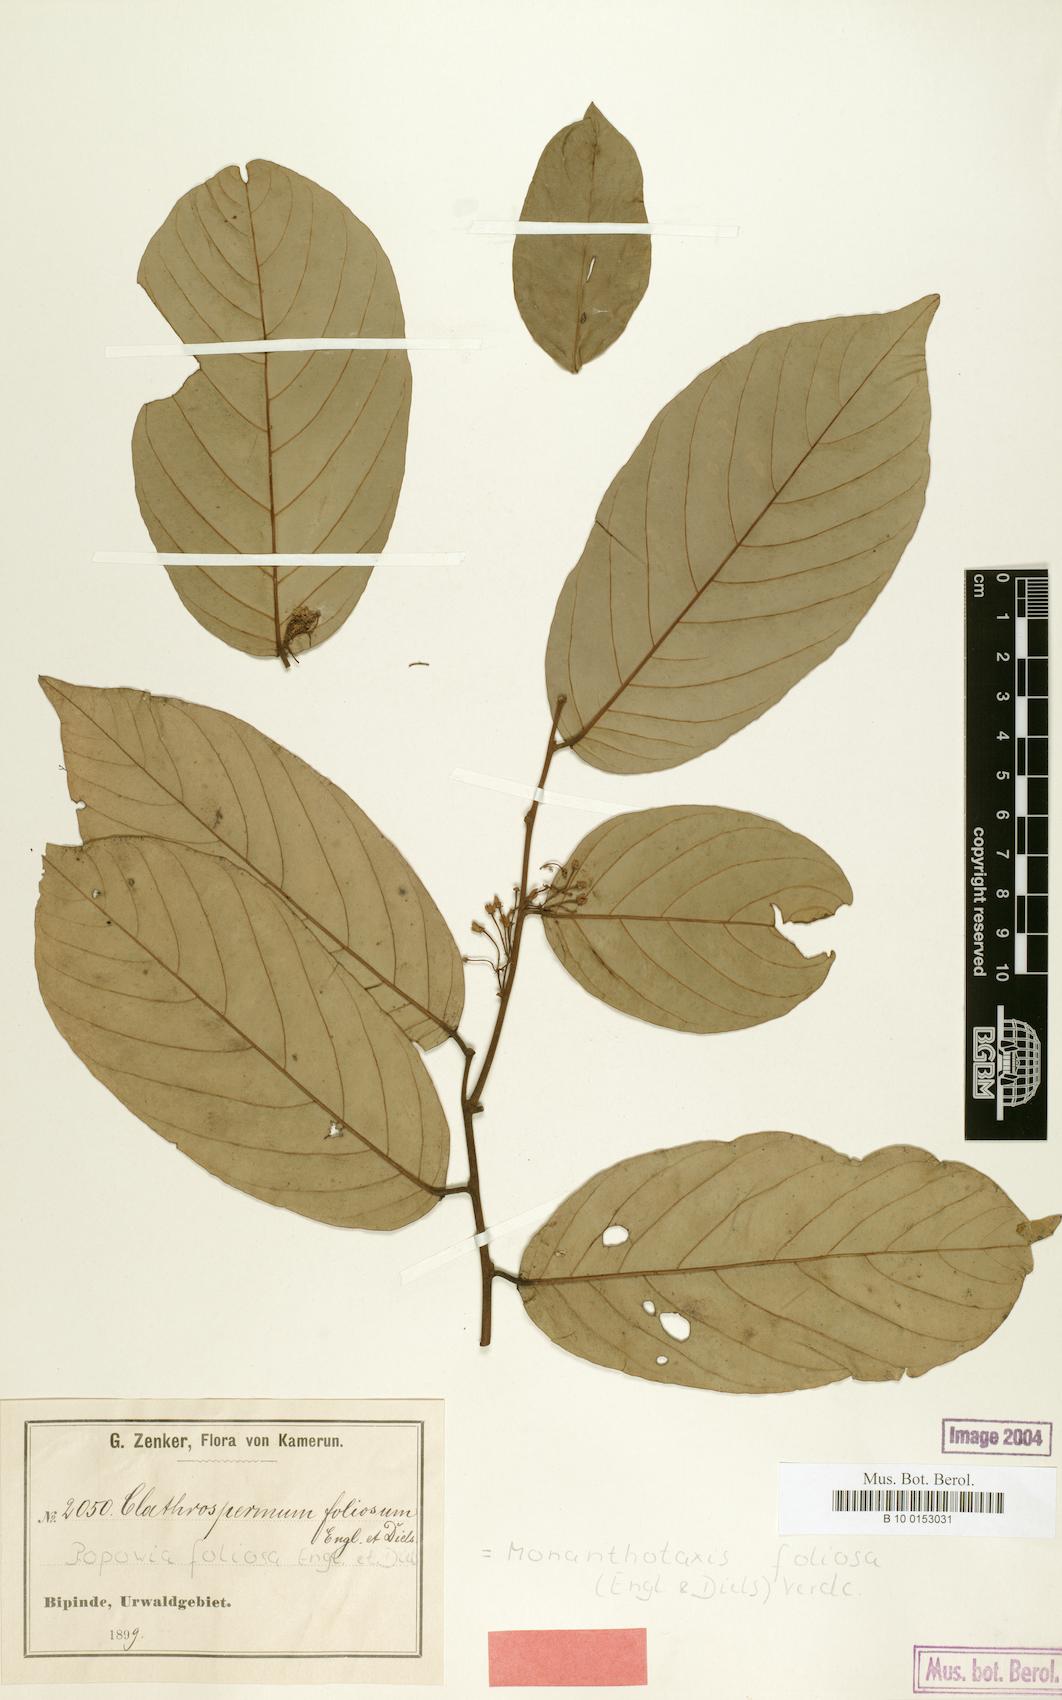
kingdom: Plantae
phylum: Tracheophyta
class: Magnoliopsida
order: Magnoliales
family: Annonaceae
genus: Monanthotaxis
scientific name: Monanthotaxis foliosa
